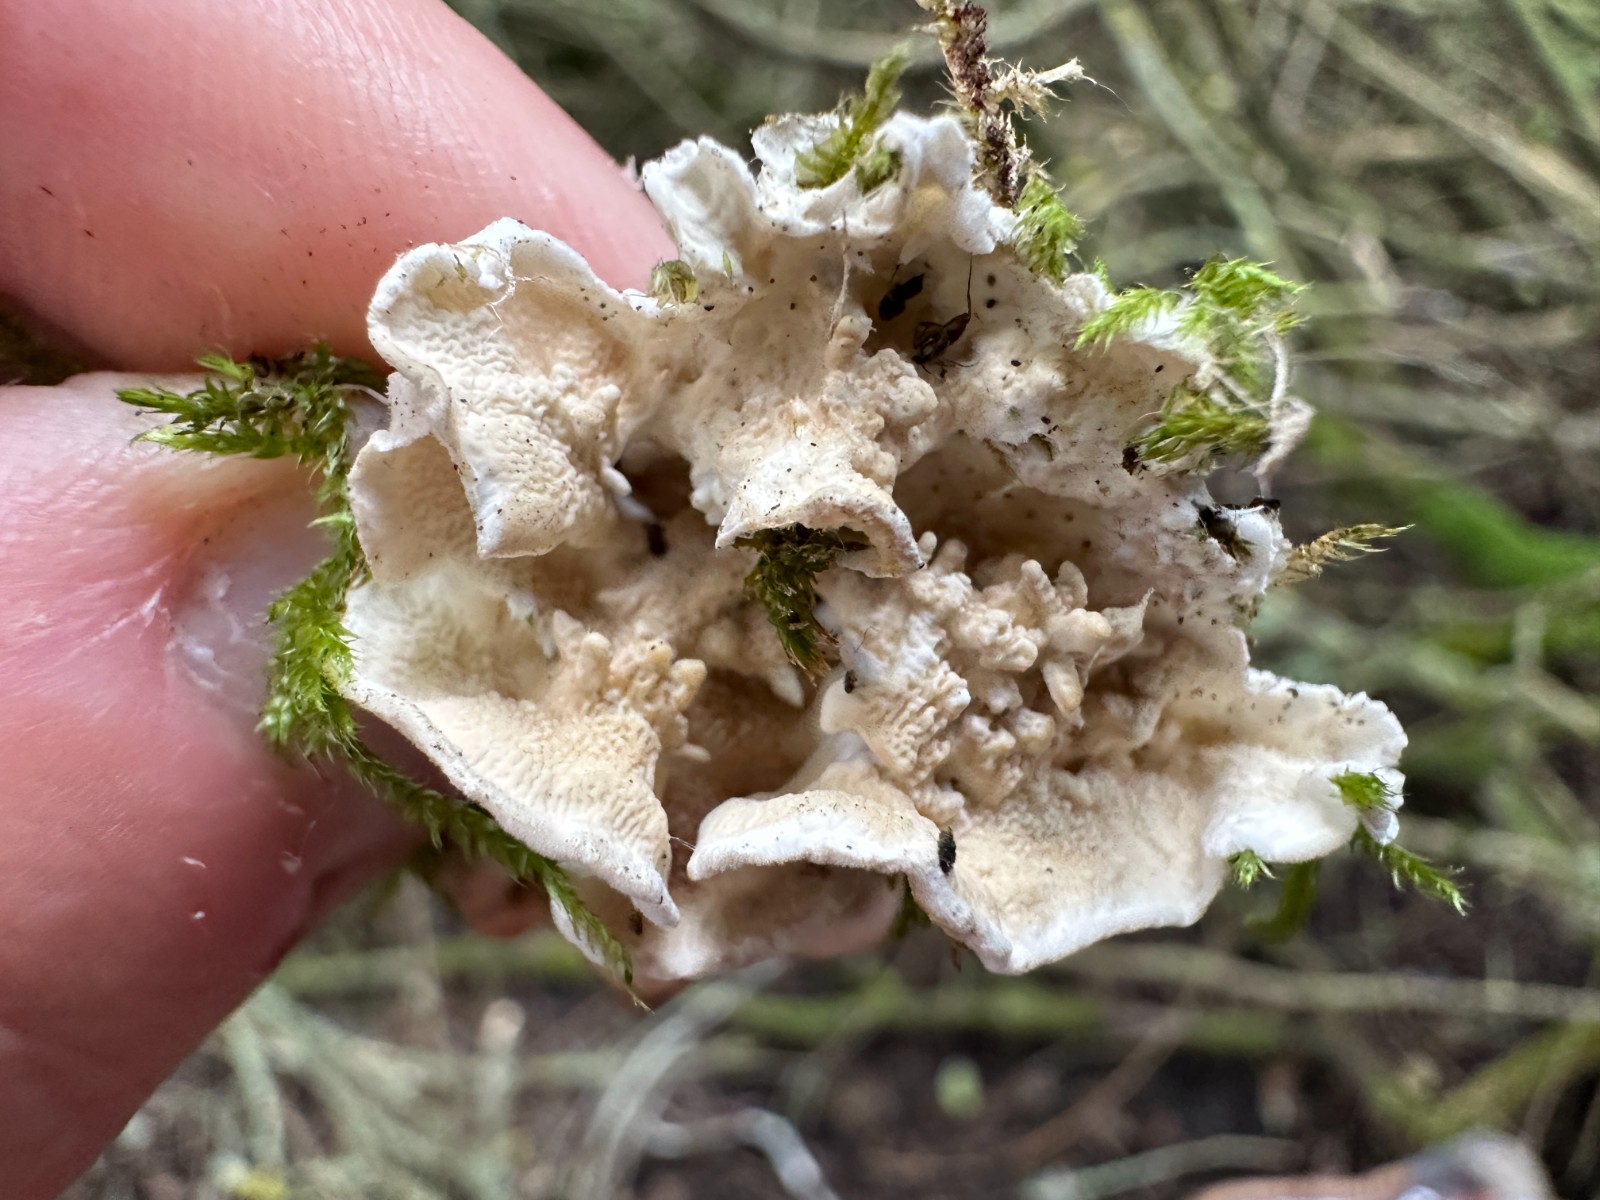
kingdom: Fungi
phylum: Basidiomycota
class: Agaricomycetes
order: Polyporales
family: Irpicaceae
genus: Byssomerulius
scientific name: Byssomerulius corium
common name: læder-åresvamp
